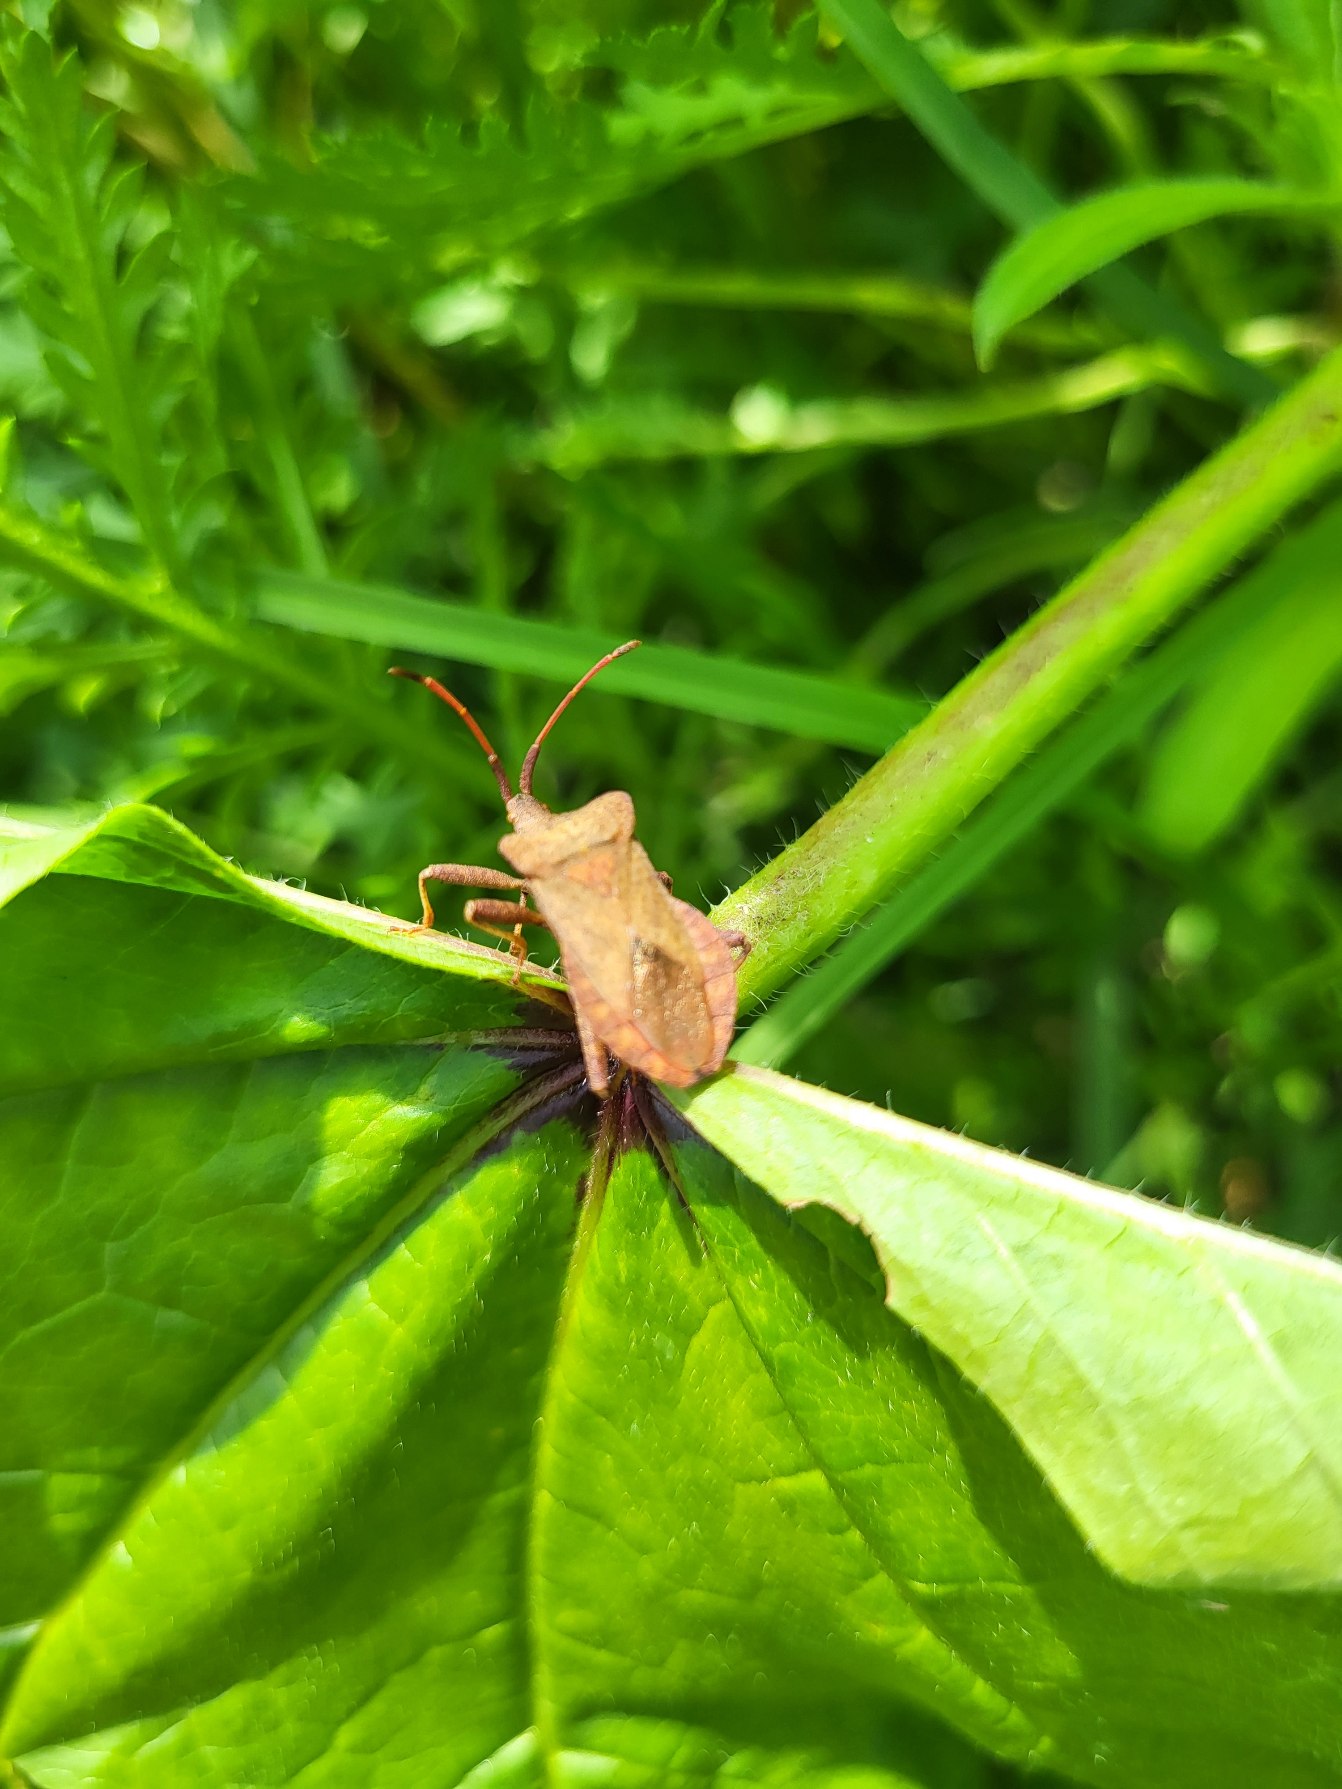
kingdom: Animalia
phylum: Arthropoda
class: Insecta
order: Hemiptera
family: Coreidae
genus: Coreus
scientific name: Coreus marginatus
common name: Skræppetæge
